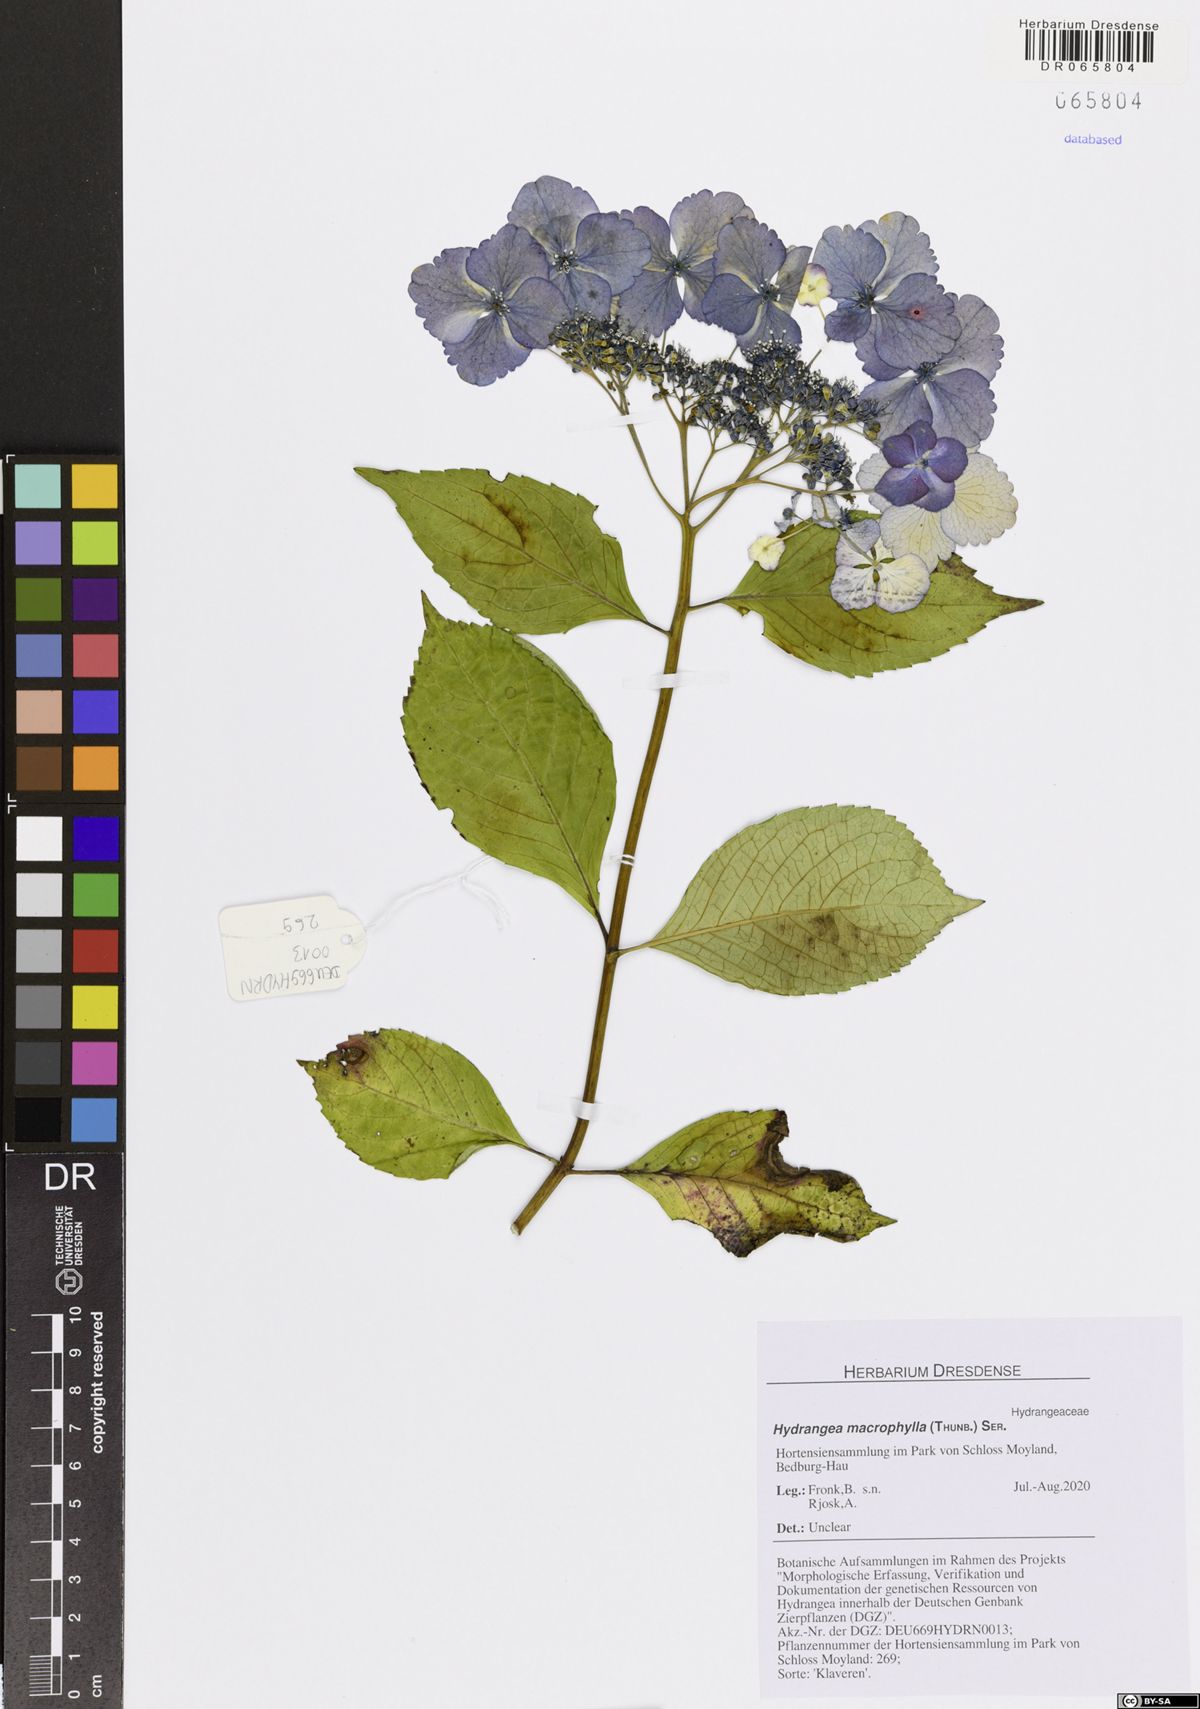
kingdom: Plantae
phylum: Tracheophyta
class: Magnoliopsida
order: Cornales
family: Hydrangeaceae
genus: Hydrangea
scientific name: Hydrangea macrophylla
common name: Hydrangea
